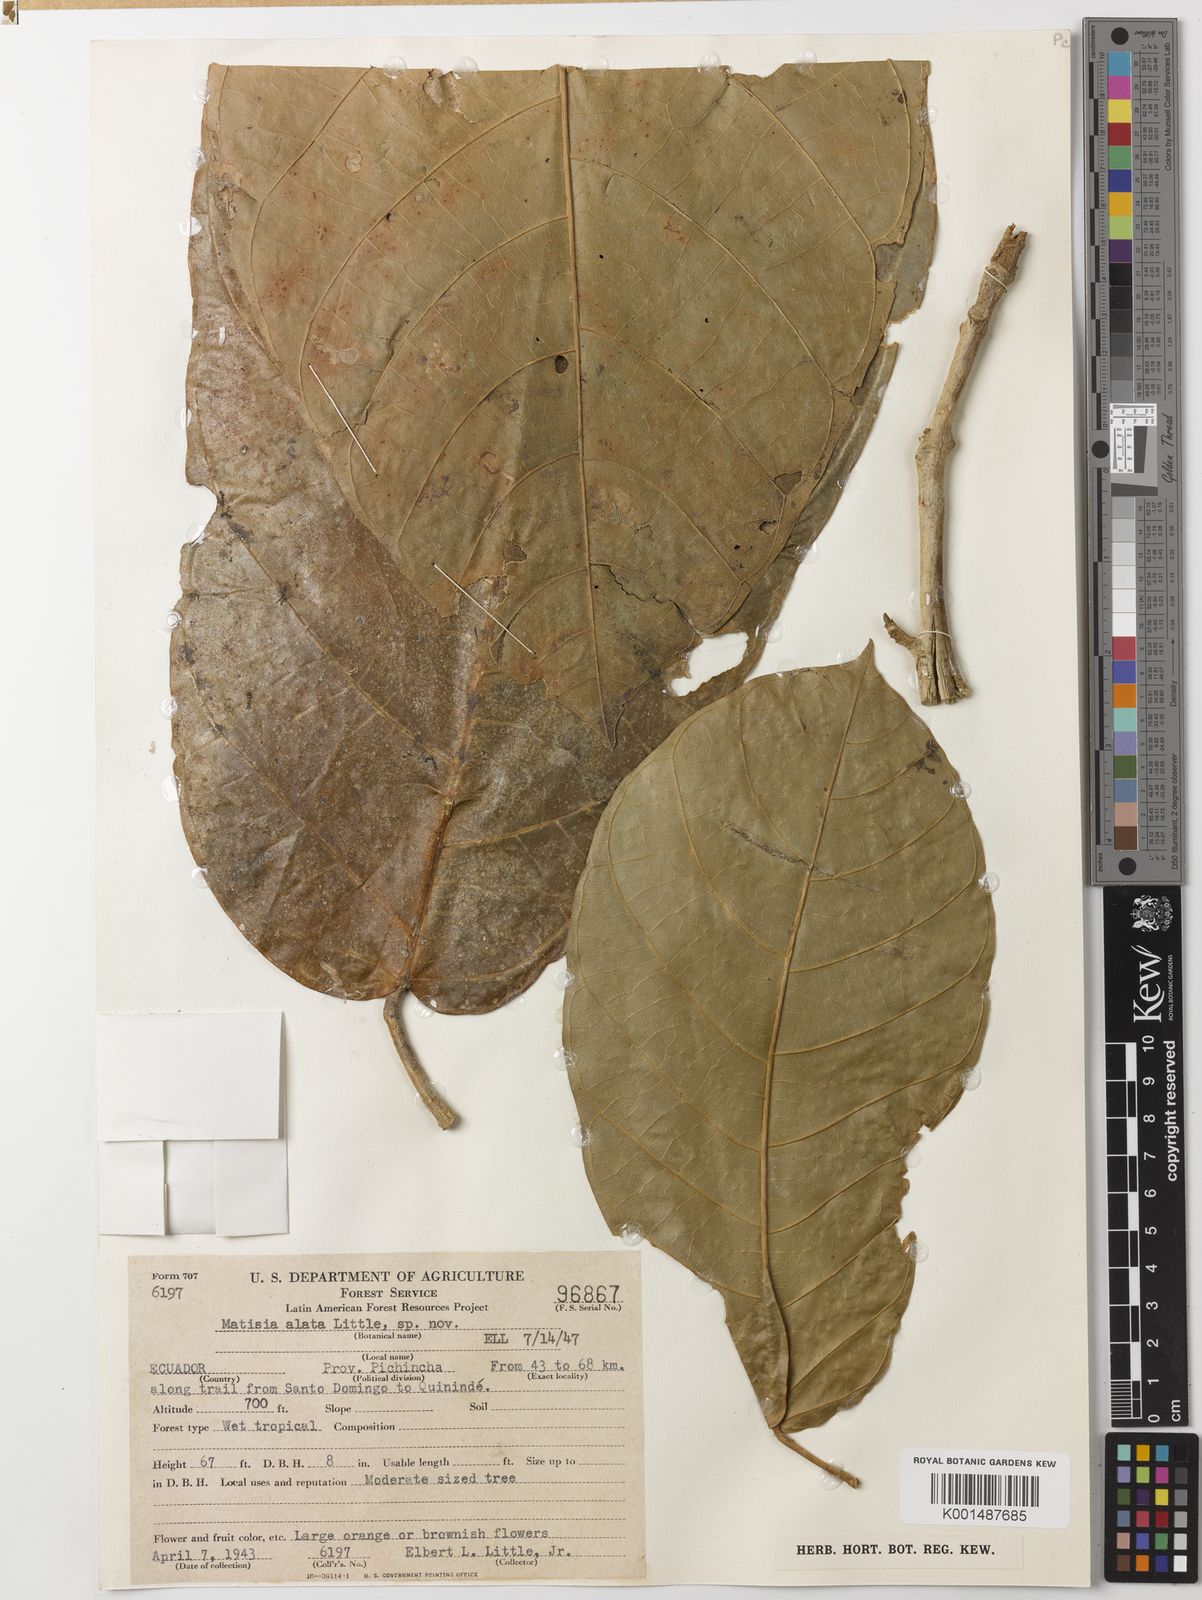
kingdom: Plantae
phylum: Tracheophyta
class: Magnoliopsida
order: Malvales
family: Malvaceae
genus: Matisia
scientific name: Matisia alata
